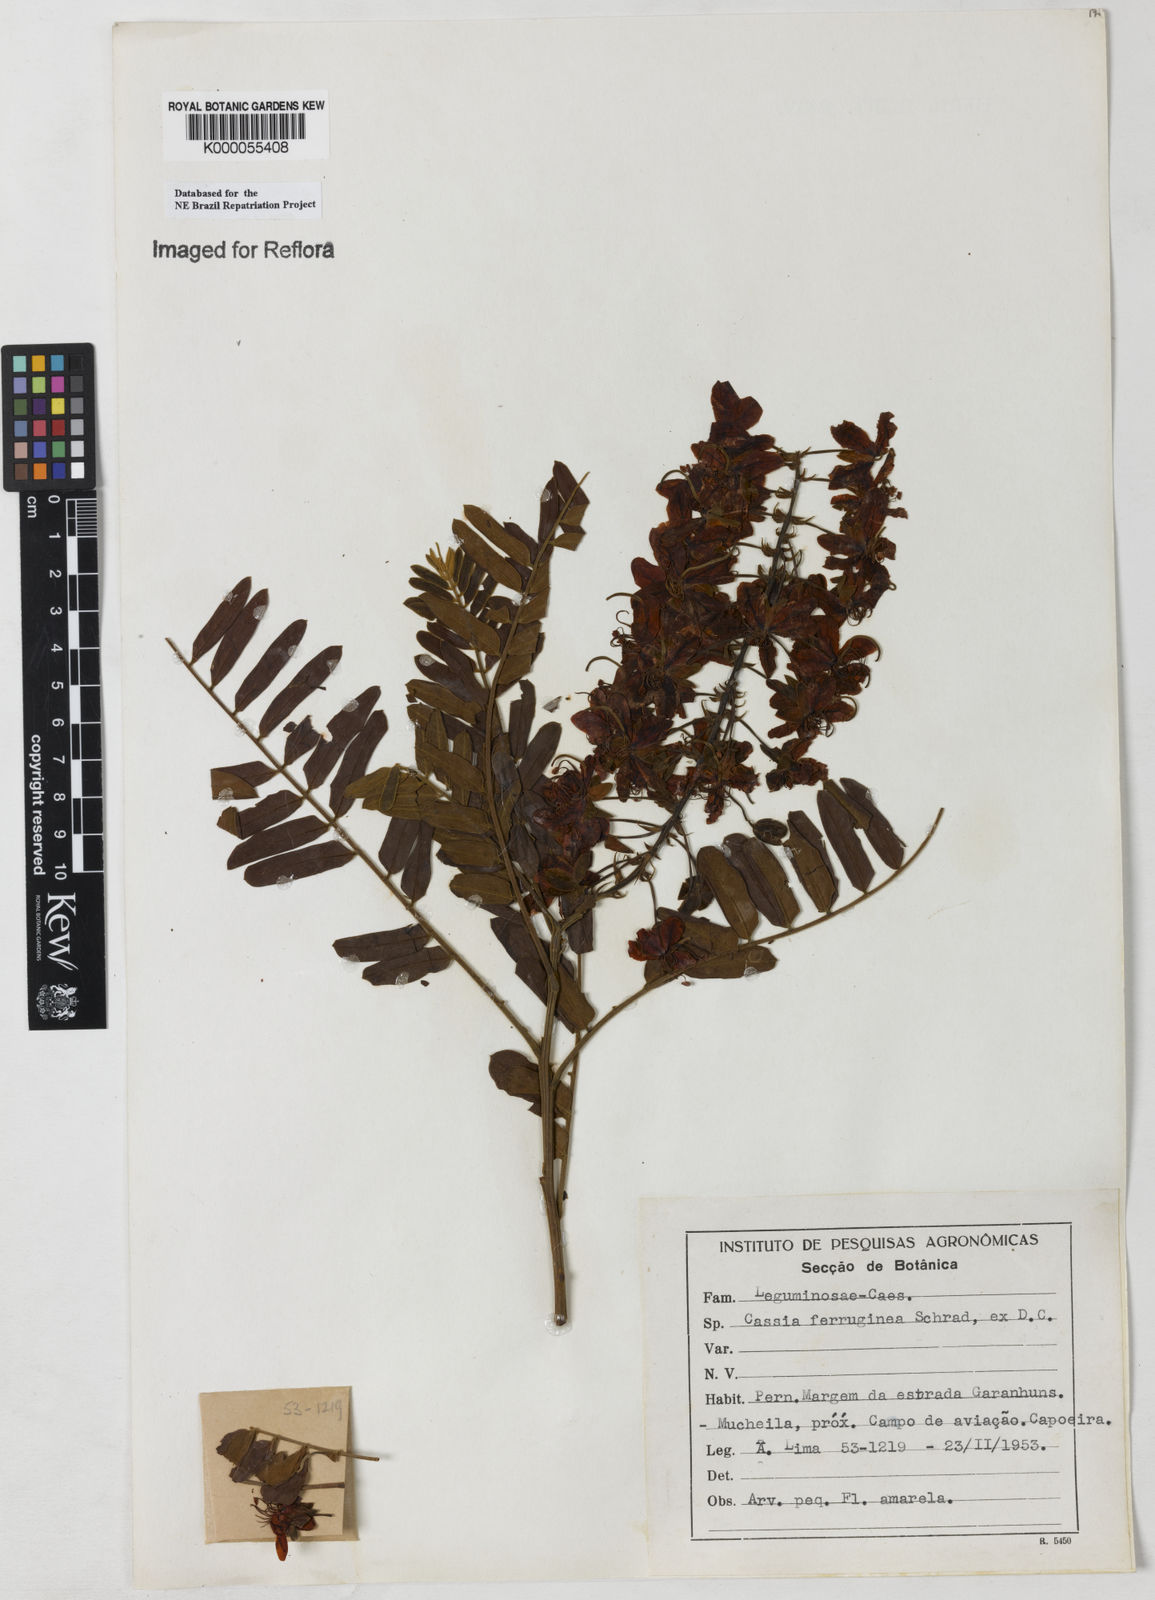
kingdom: Plantae
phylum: Tracheophyta
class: Magnoliopsida
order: Fabales
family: Fabaceae
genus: Cassia
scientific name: Cassia ferruginea
